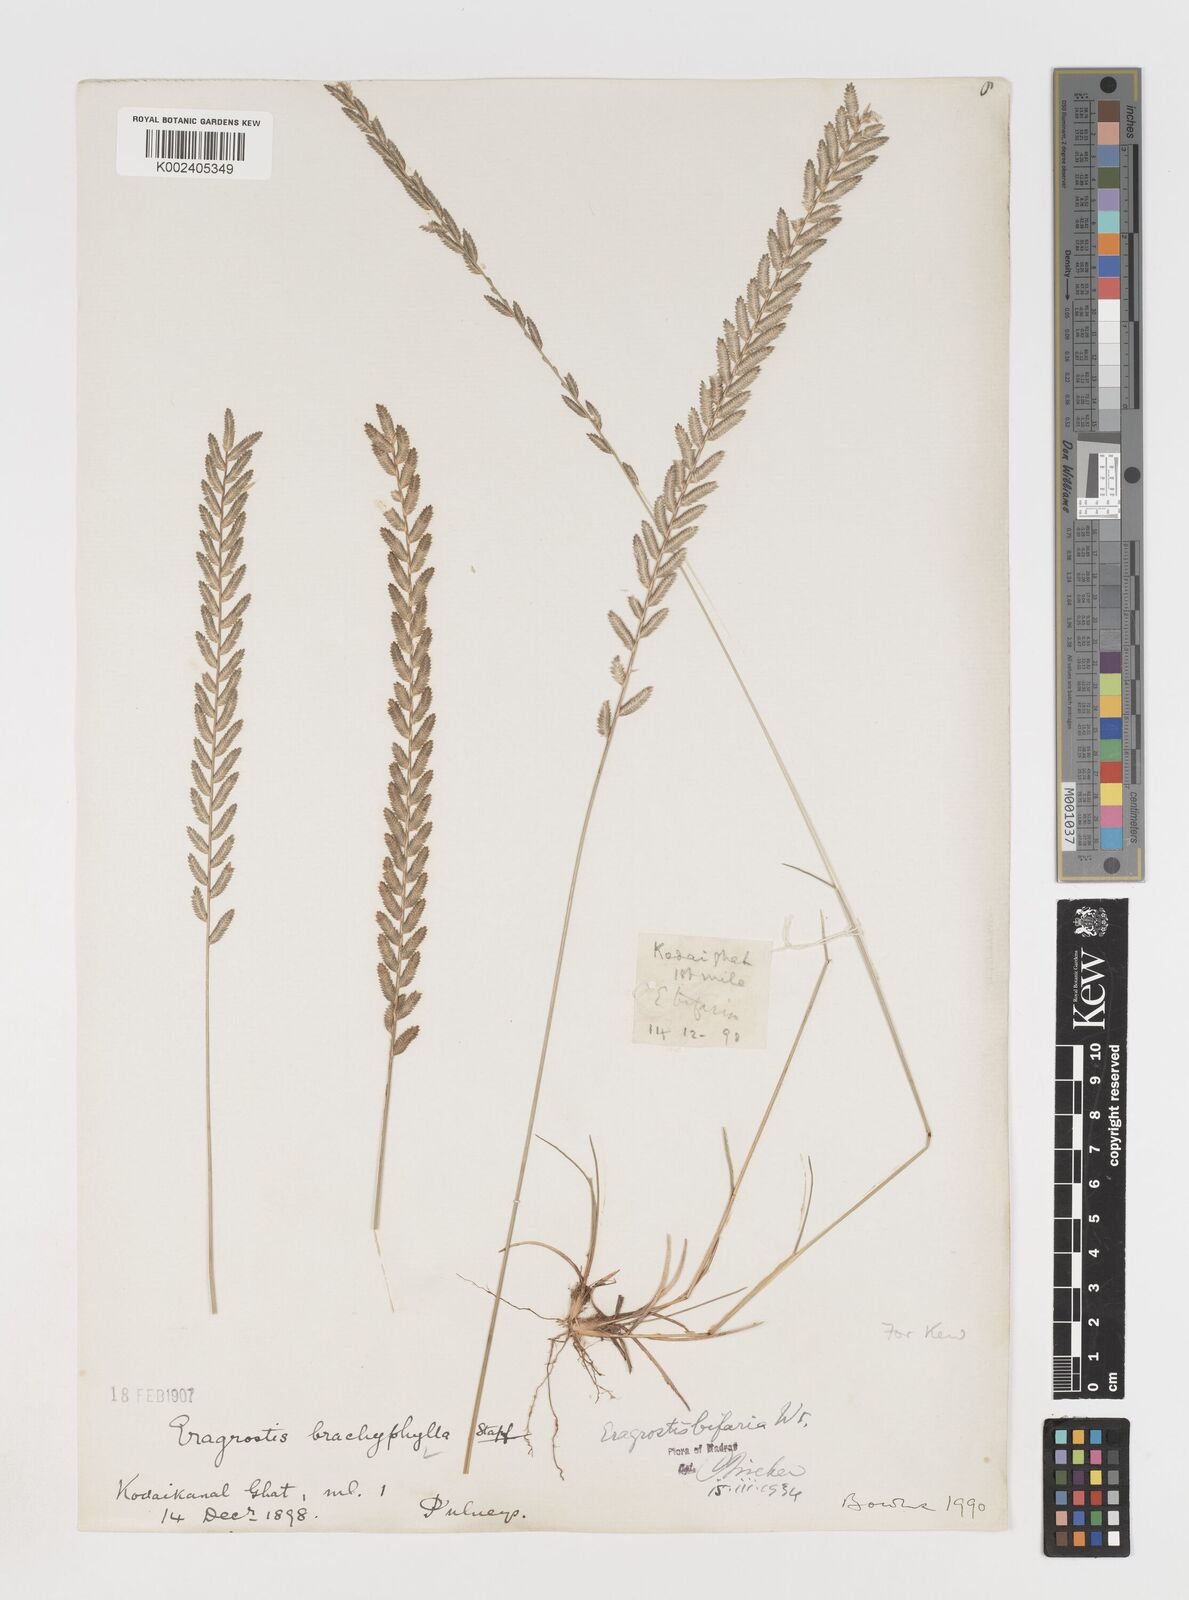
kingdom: Plantae
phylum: Tracheophyta
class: Liliopsida
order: Poales
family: Poaceae
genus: Eragrostiella
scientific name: Eragrostiella bifaria
